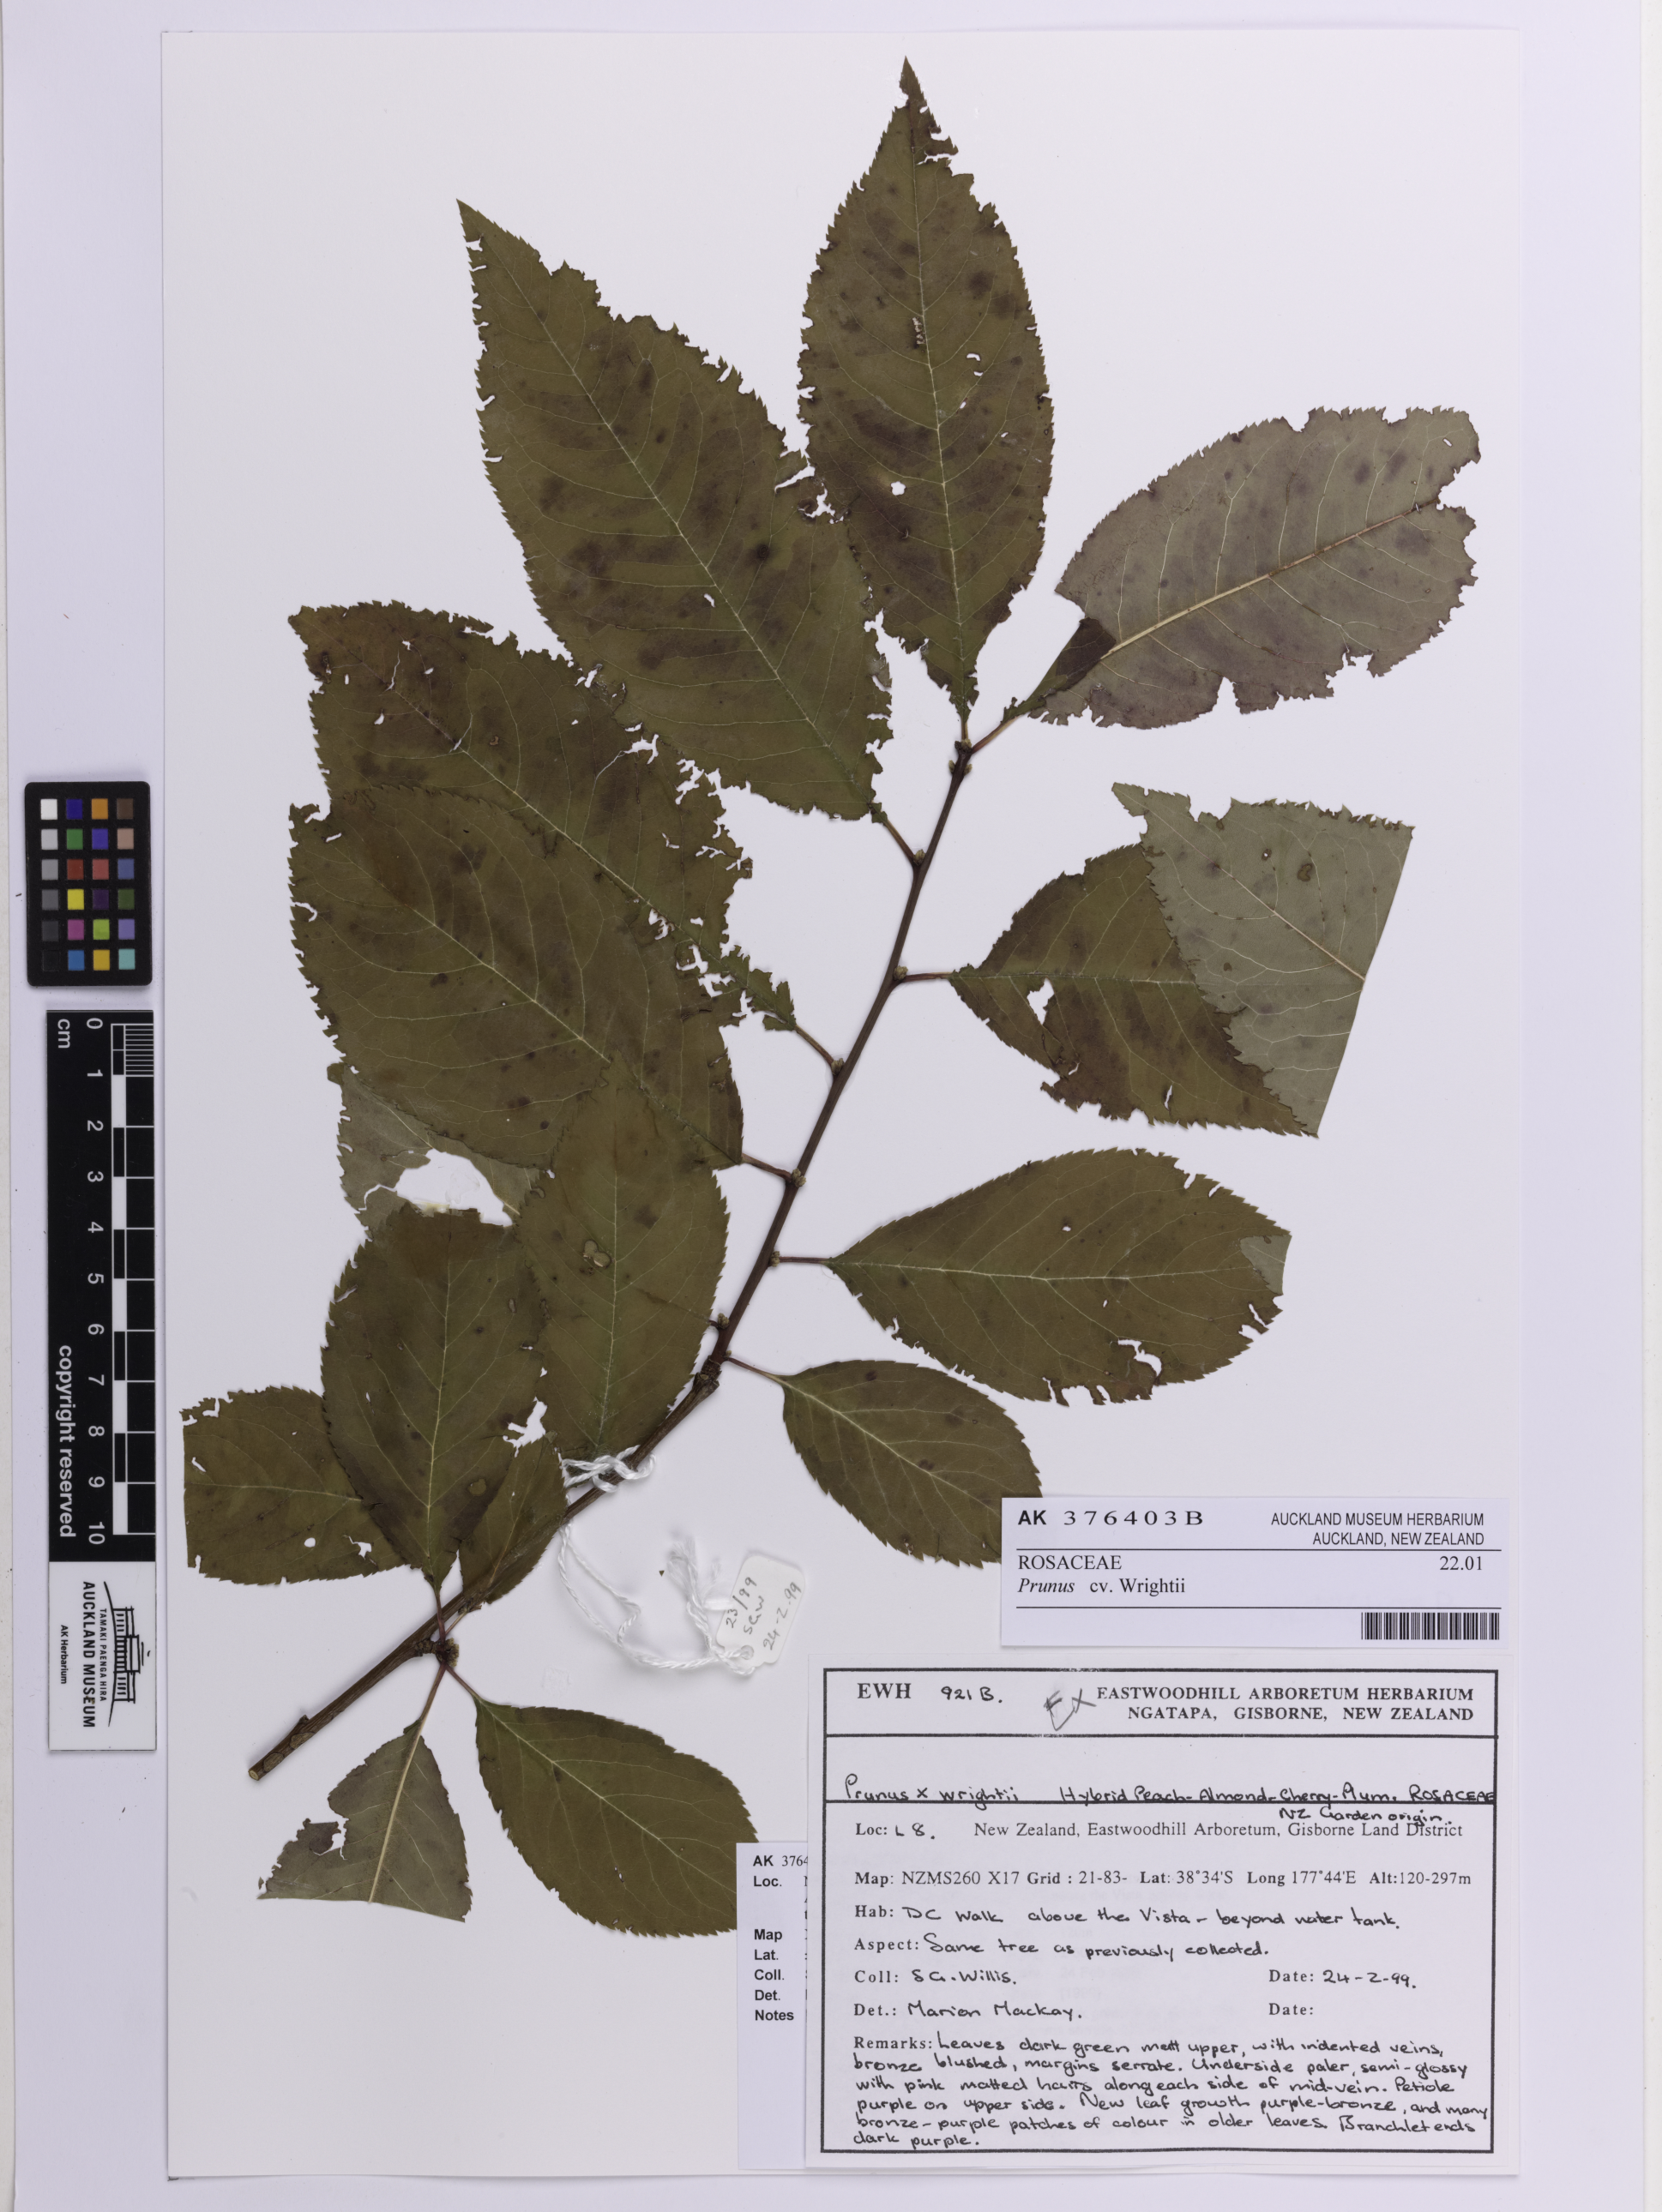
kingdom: Plantae
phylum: Tracheophyta
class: Magnoliopsida
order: Rosales
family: Rosaceae
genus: Prunus
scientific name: Prunus
